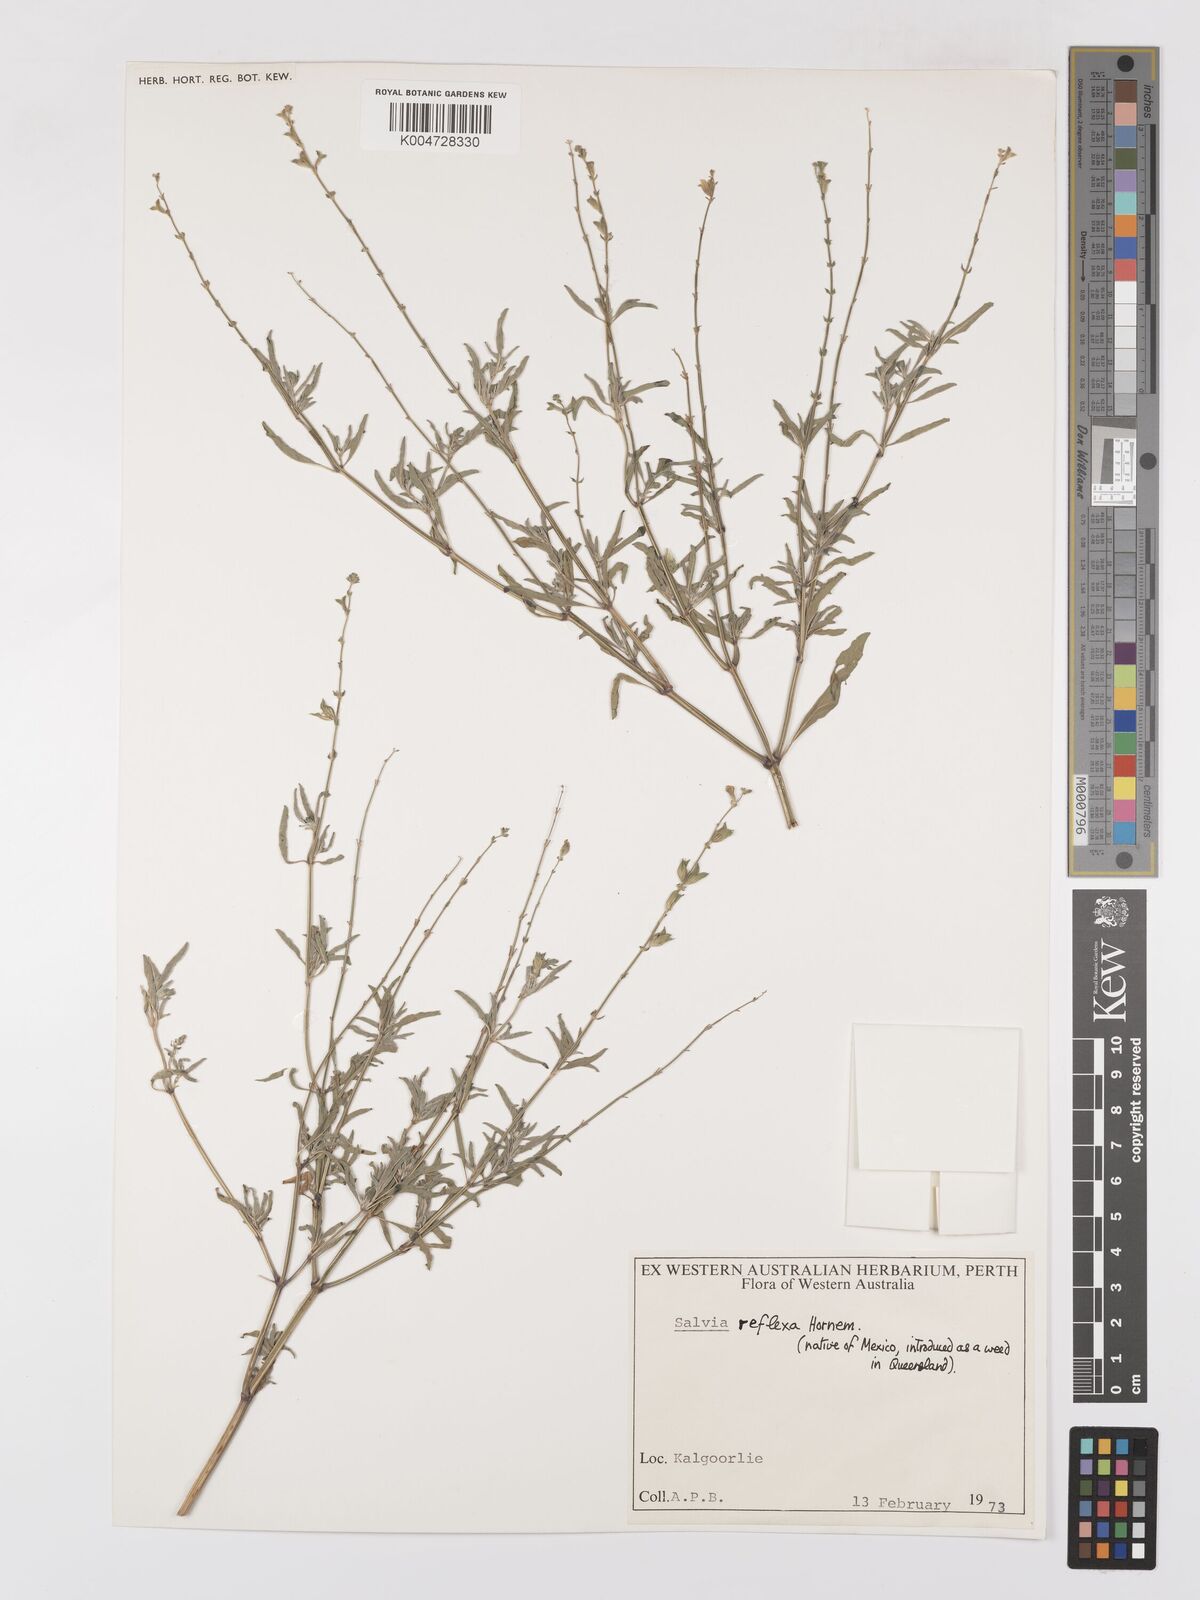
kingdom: Plantae
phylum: Tracheophyta
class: Magnoliopsida
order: Lamiales
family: Lamiaceae
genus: Salvia
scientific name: Salvia reflexa
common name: Mintweed
